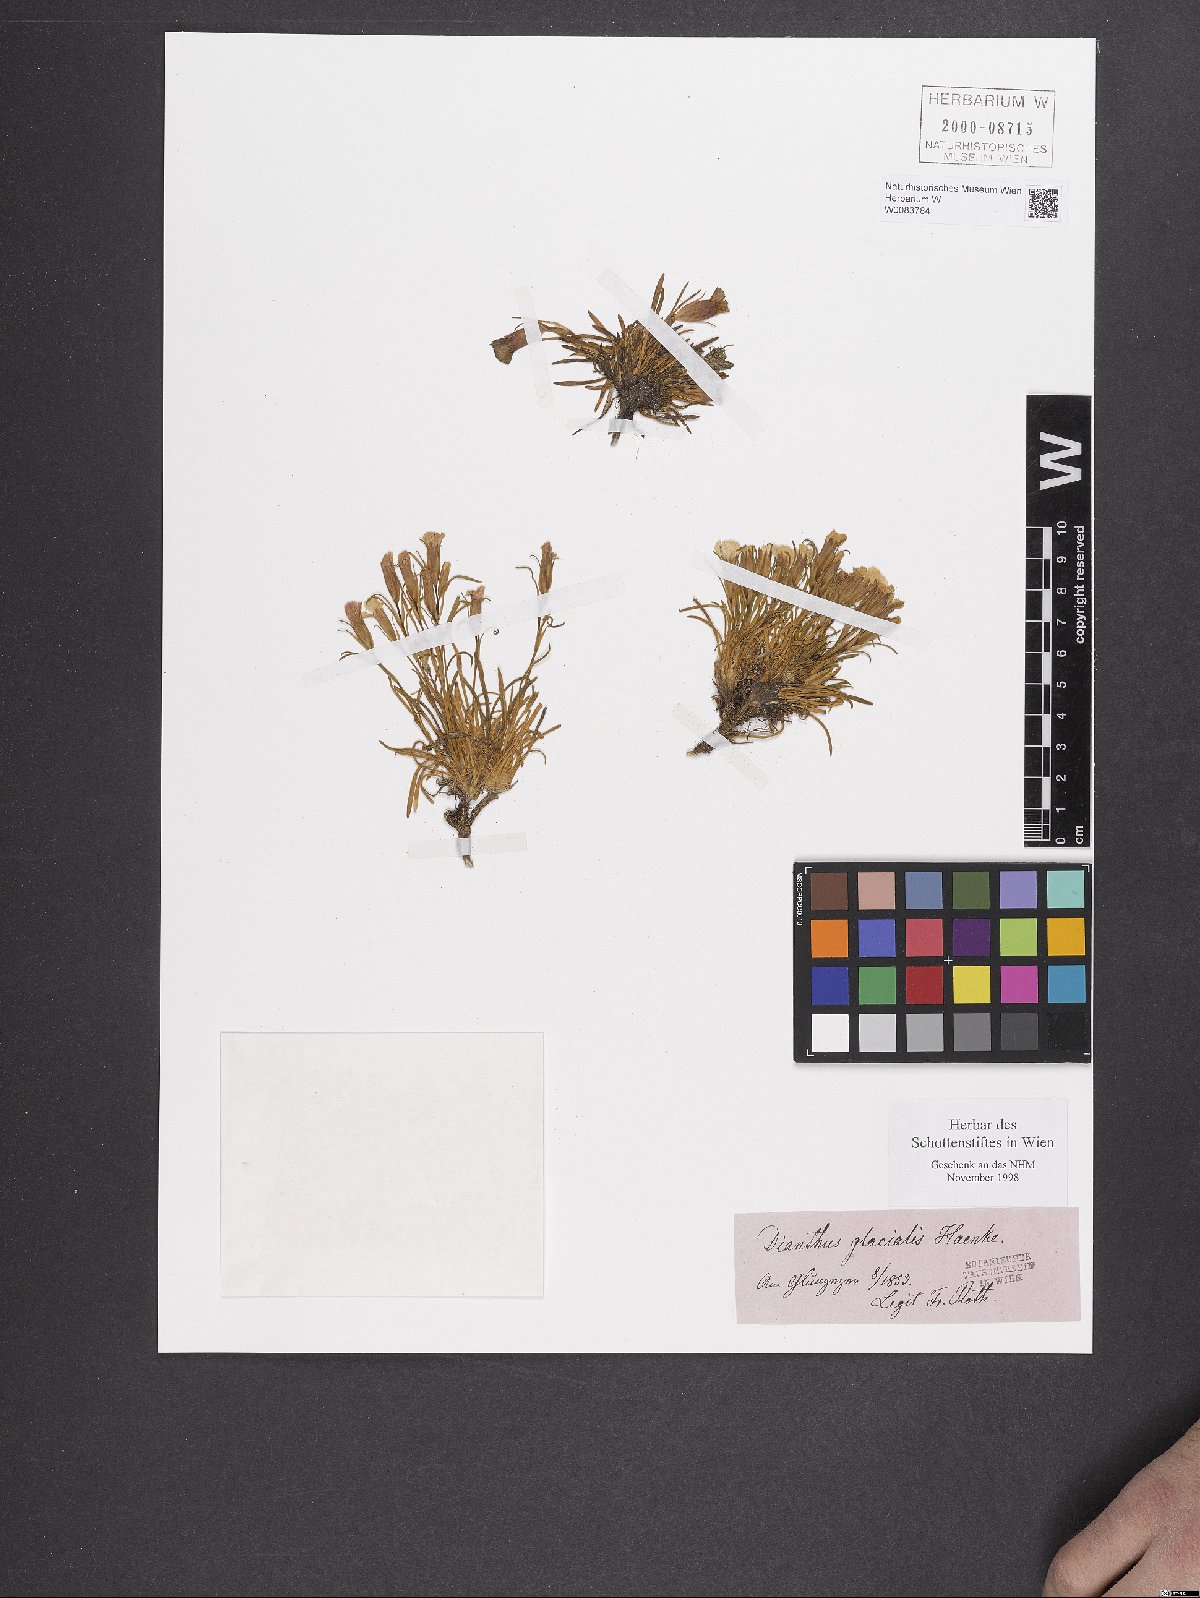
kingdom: Plantae
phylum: Tracheophyta
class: Magnoliopsida
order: Caryophyllales
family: Caryophyllaceae
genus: Dianthus
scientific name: Dianthus glacialis
